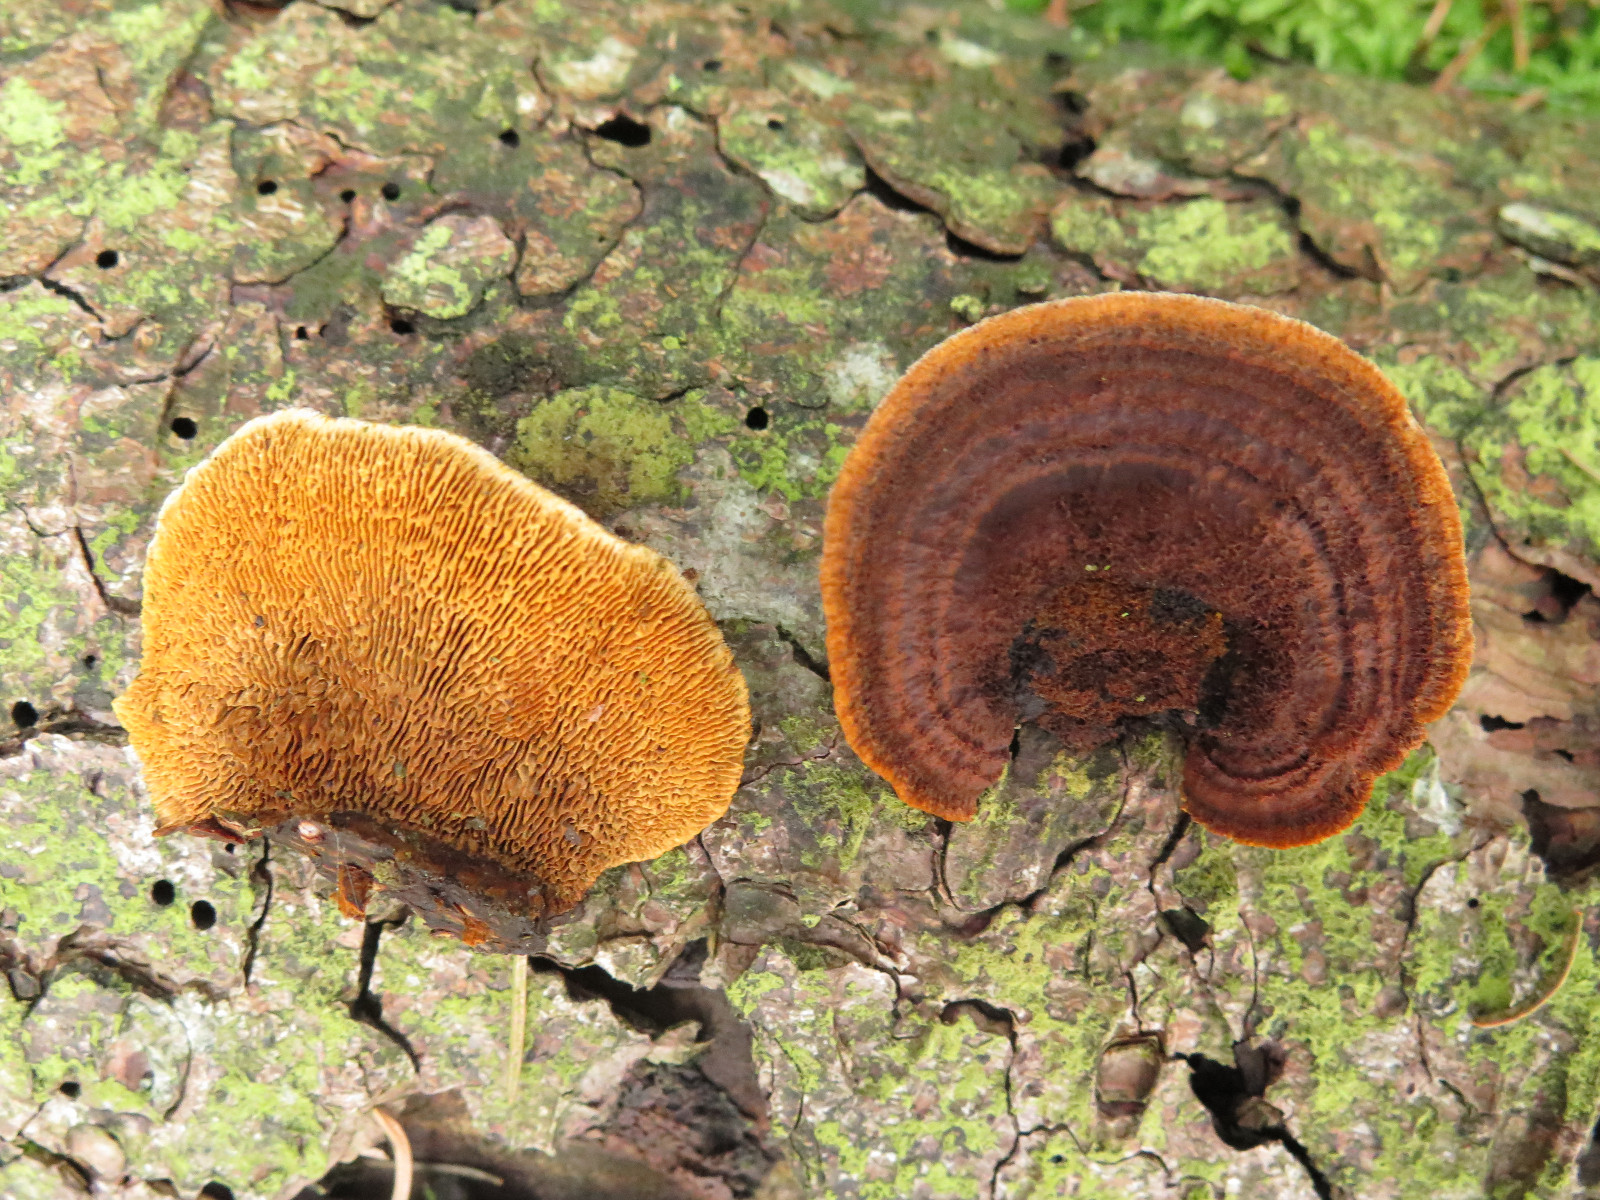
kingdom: Fungi
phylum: Basidiomycota
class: Agaricomycetes
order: Gloeophyllales
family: Gloeophyllaceae
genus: Gloeophyllum
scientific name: Gloeophyllum sepiarium
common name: fyrre-korkhat
